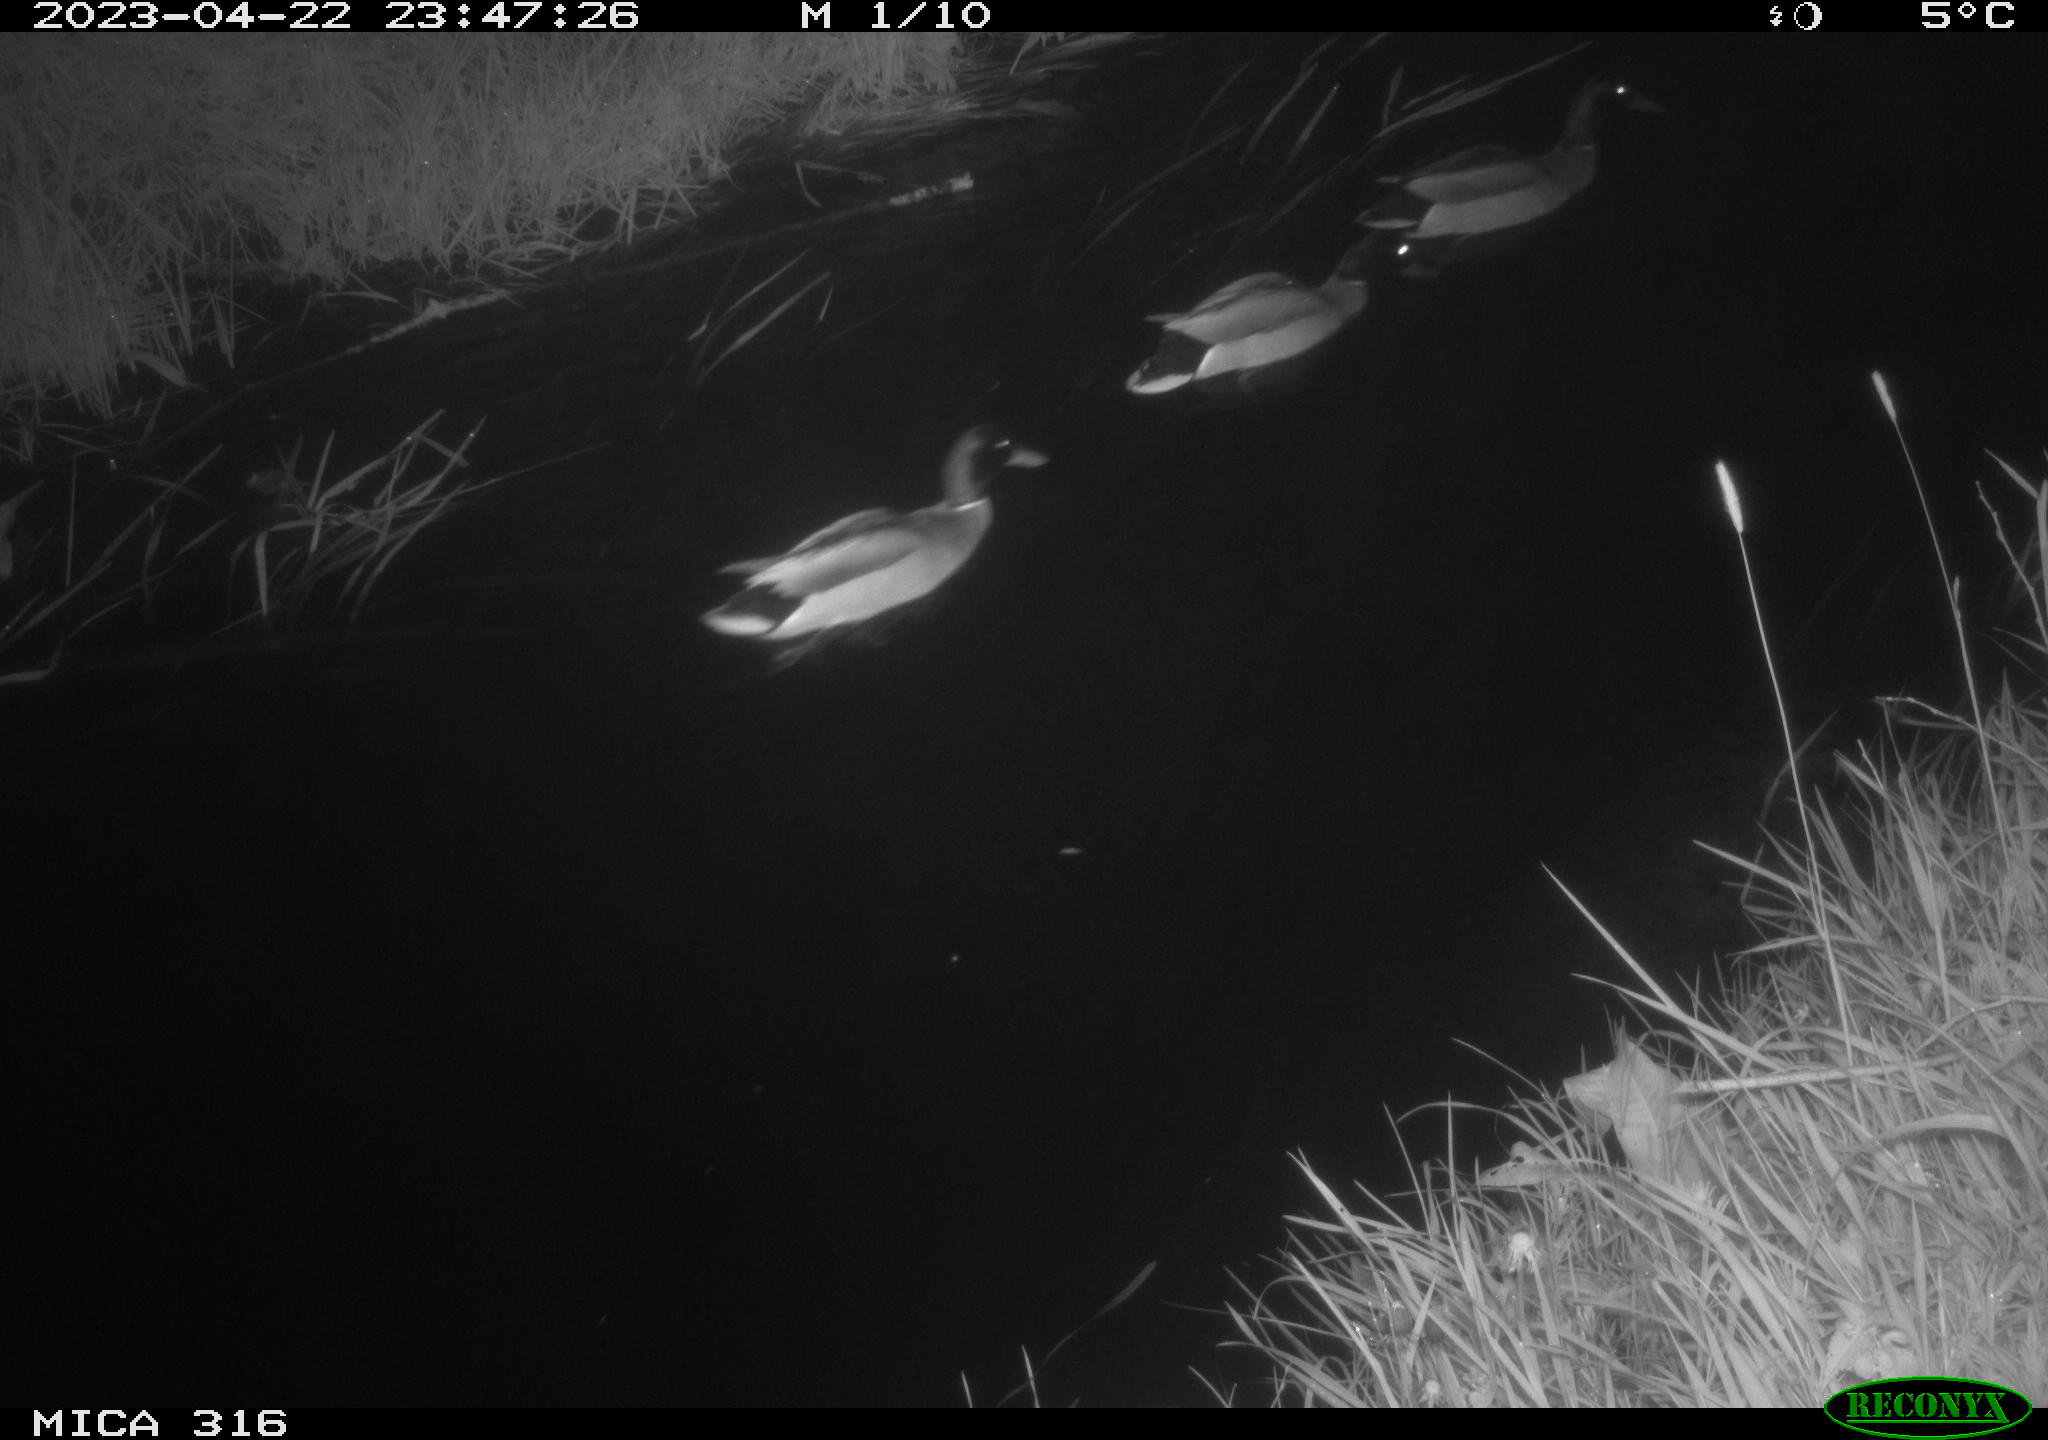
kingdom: Animalia
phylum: Chordata
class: Aves
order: Anseriformes
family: Anatidae
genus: Anas
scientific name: Anas
